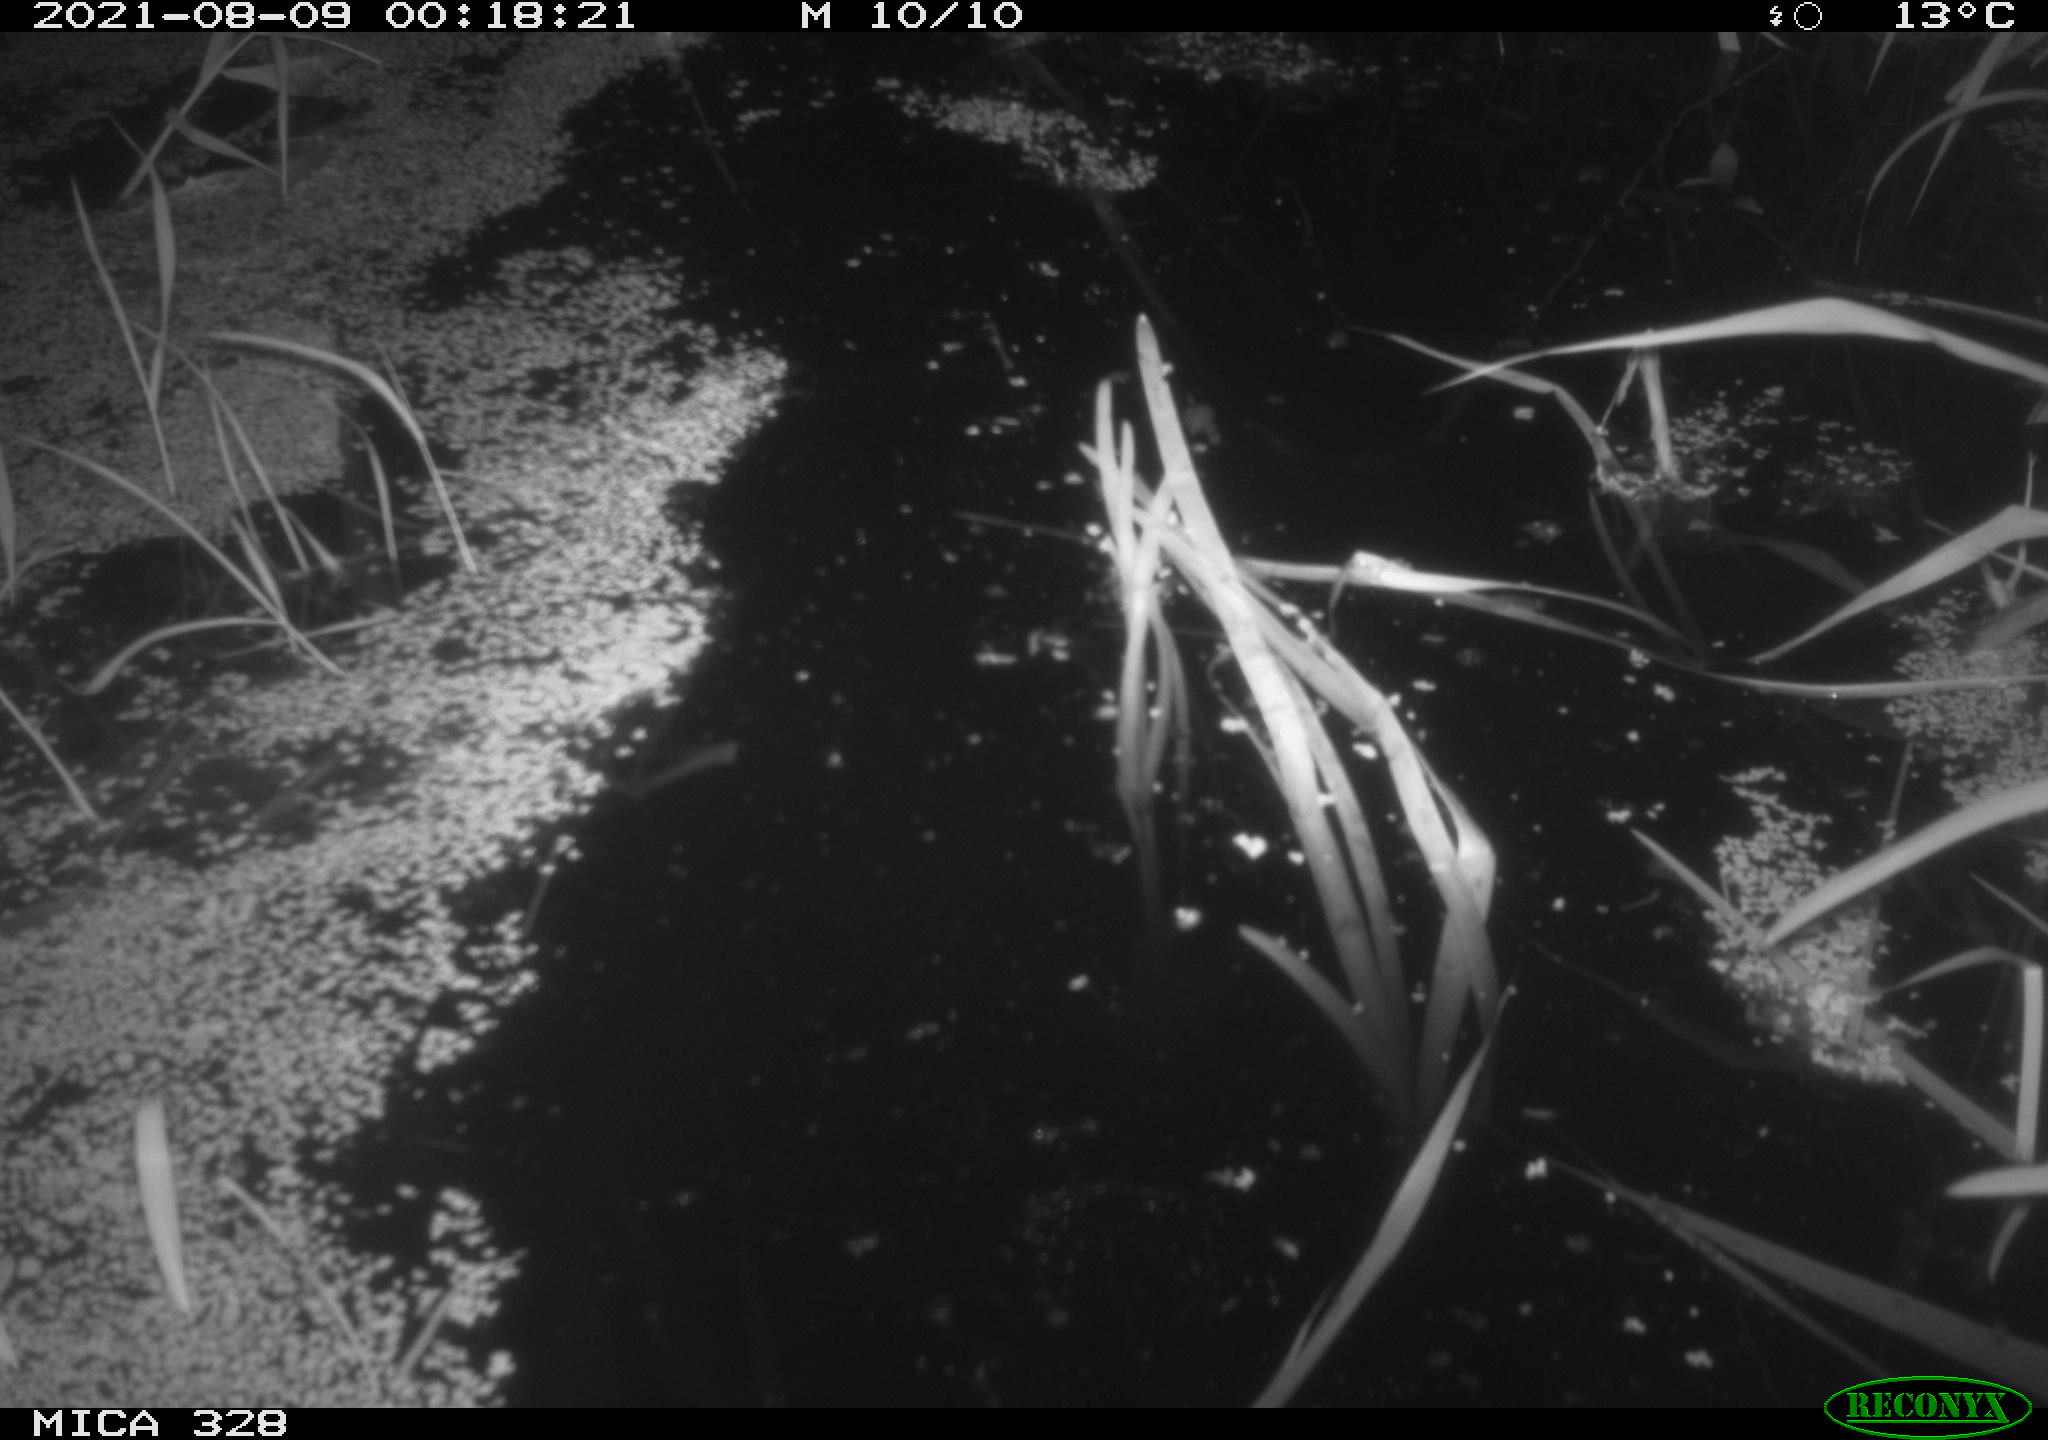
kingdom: Animalia
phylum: Chordata
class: Mammalia
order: Rodentia
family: Cricetidae
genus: Ondatra
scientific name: Ondatra zibethicus
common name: Muskrat
